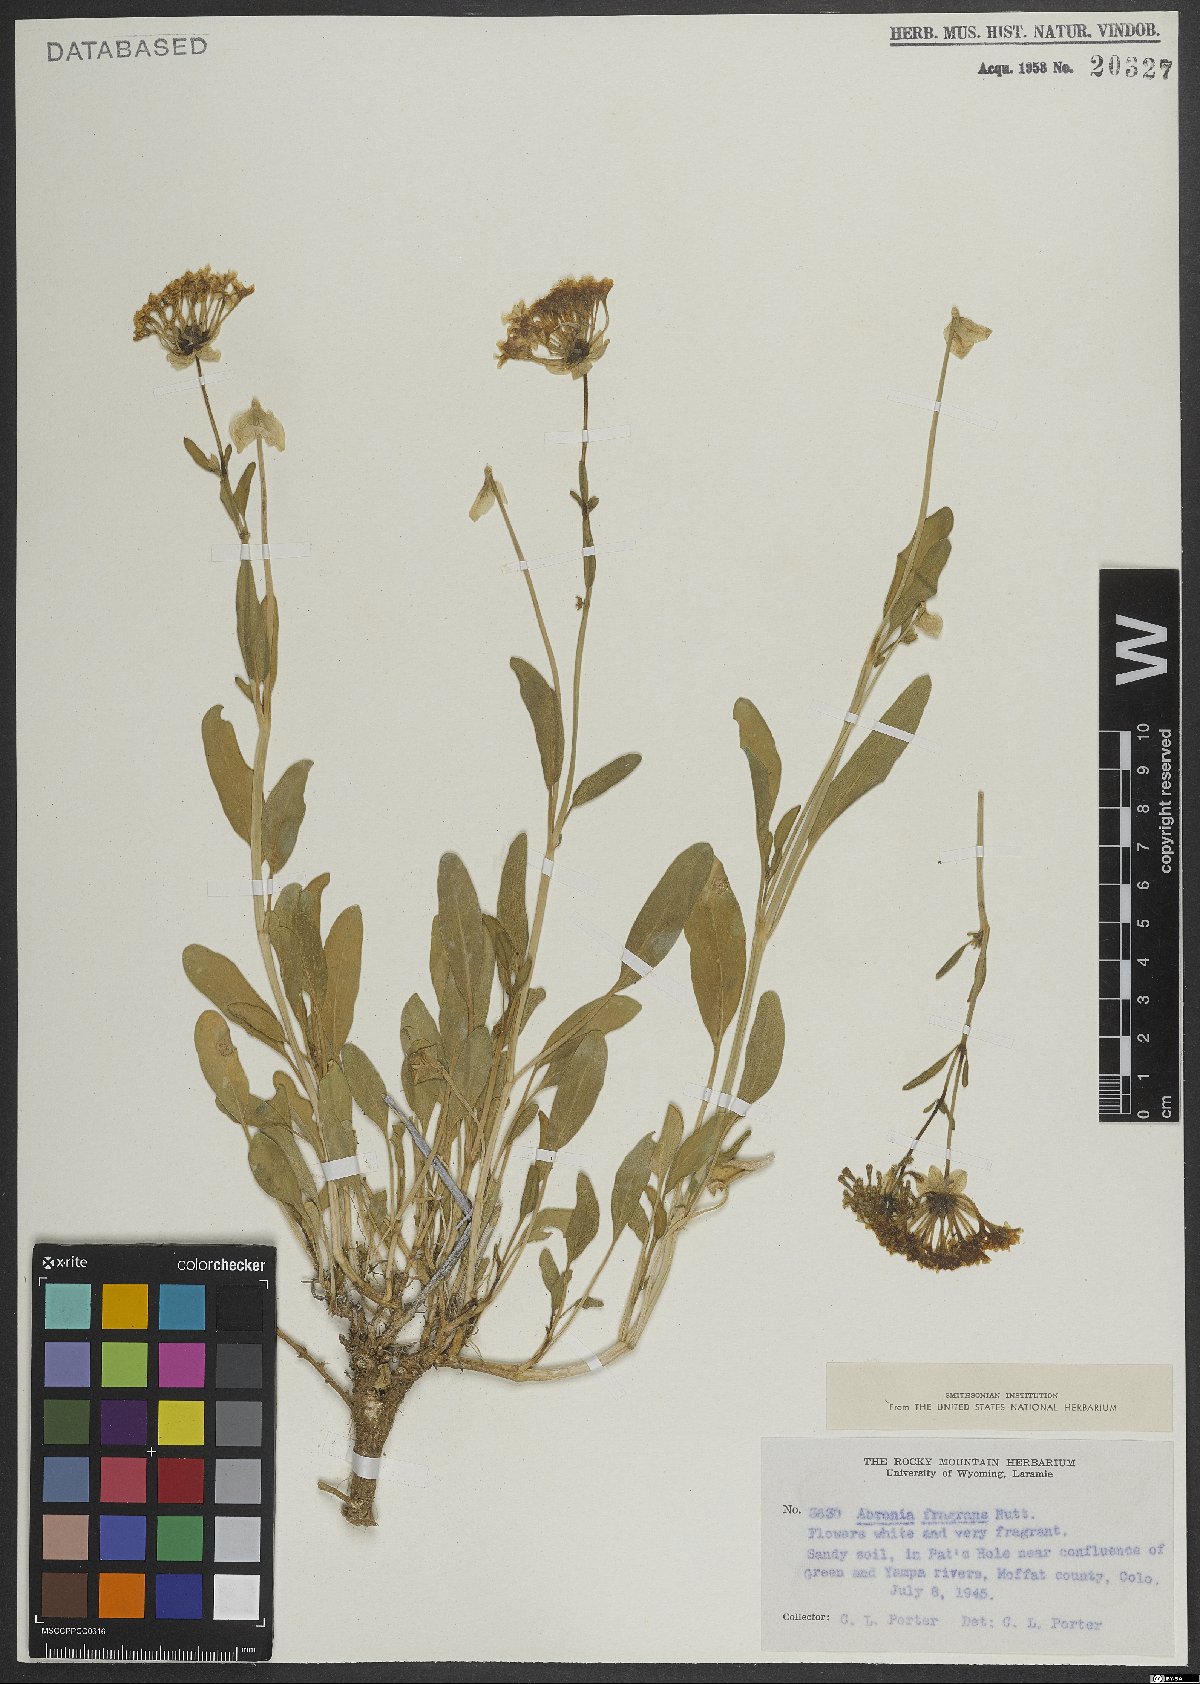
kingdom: Plantae
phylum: Tracheophyta
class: Magnoliopsida
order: Caryophyllales
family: Nyctaginaceae
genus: Abronia
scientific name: Abronia fragrans
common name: Fragrant sand-verbena
